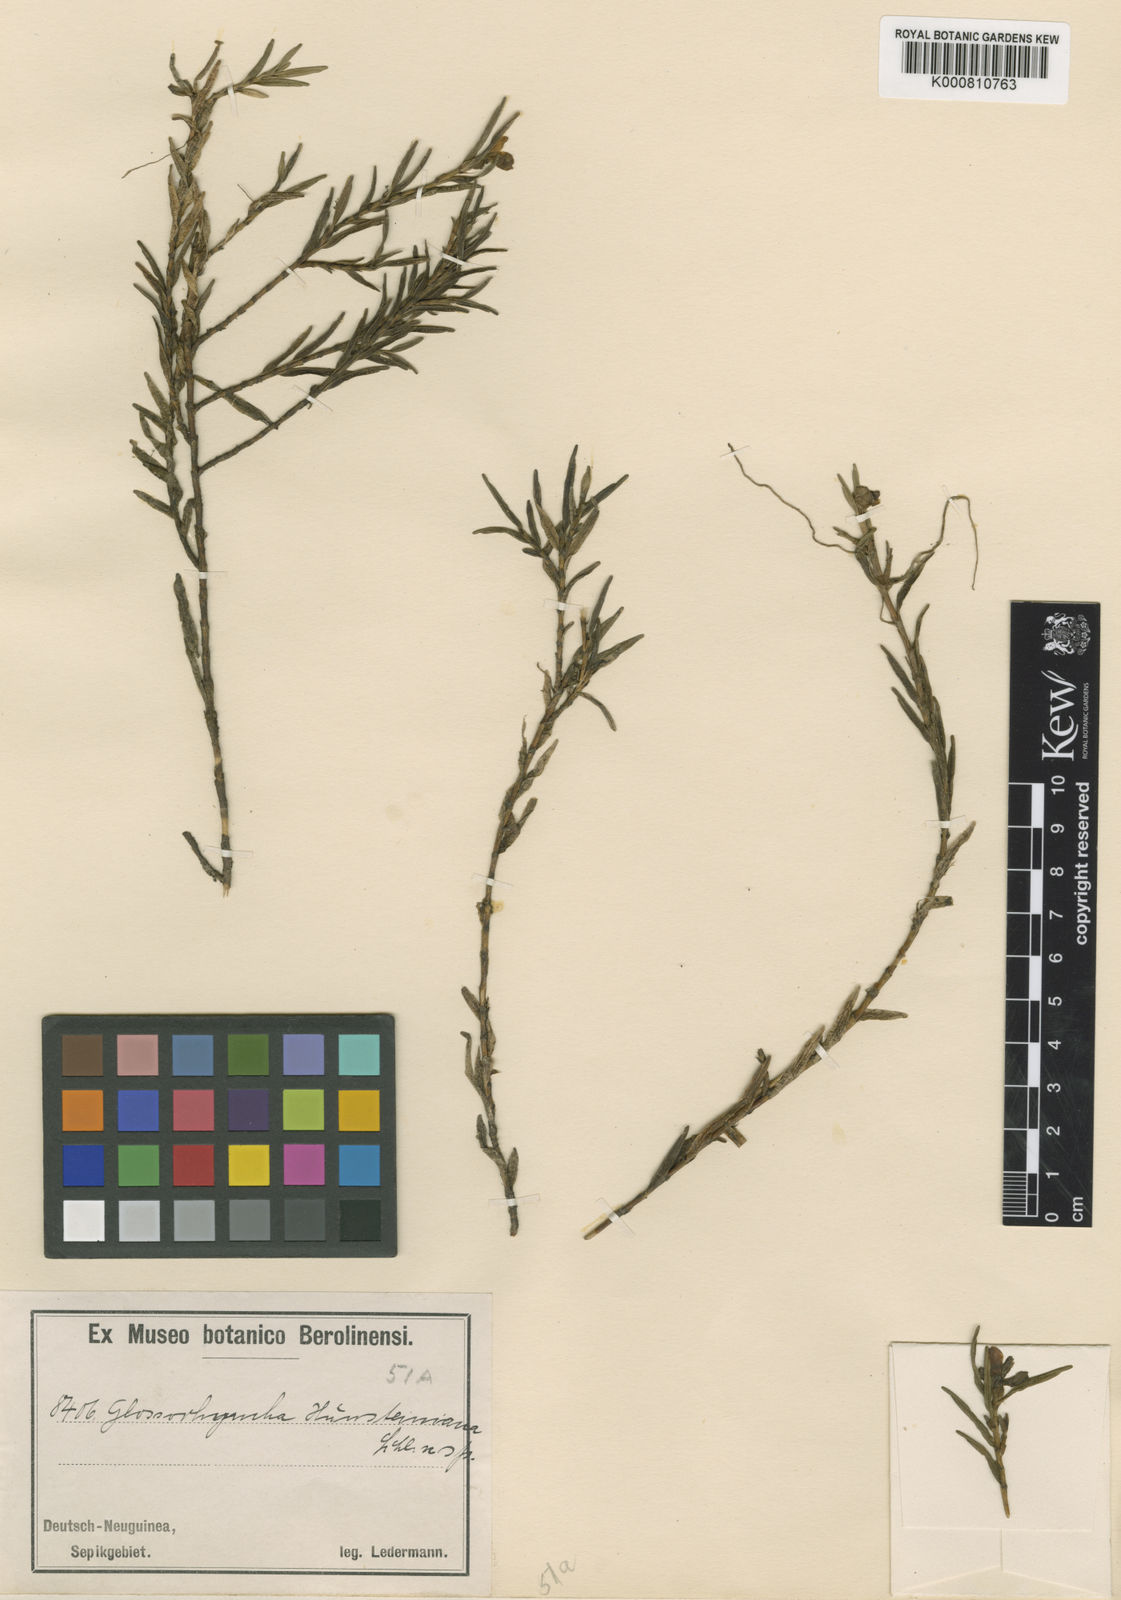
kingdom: Plantae
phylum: Tracheophyta
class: Liliopsida
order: Asparagales
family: Orchidaceae
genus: Glomera
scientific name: Glomera hunsteiniana
